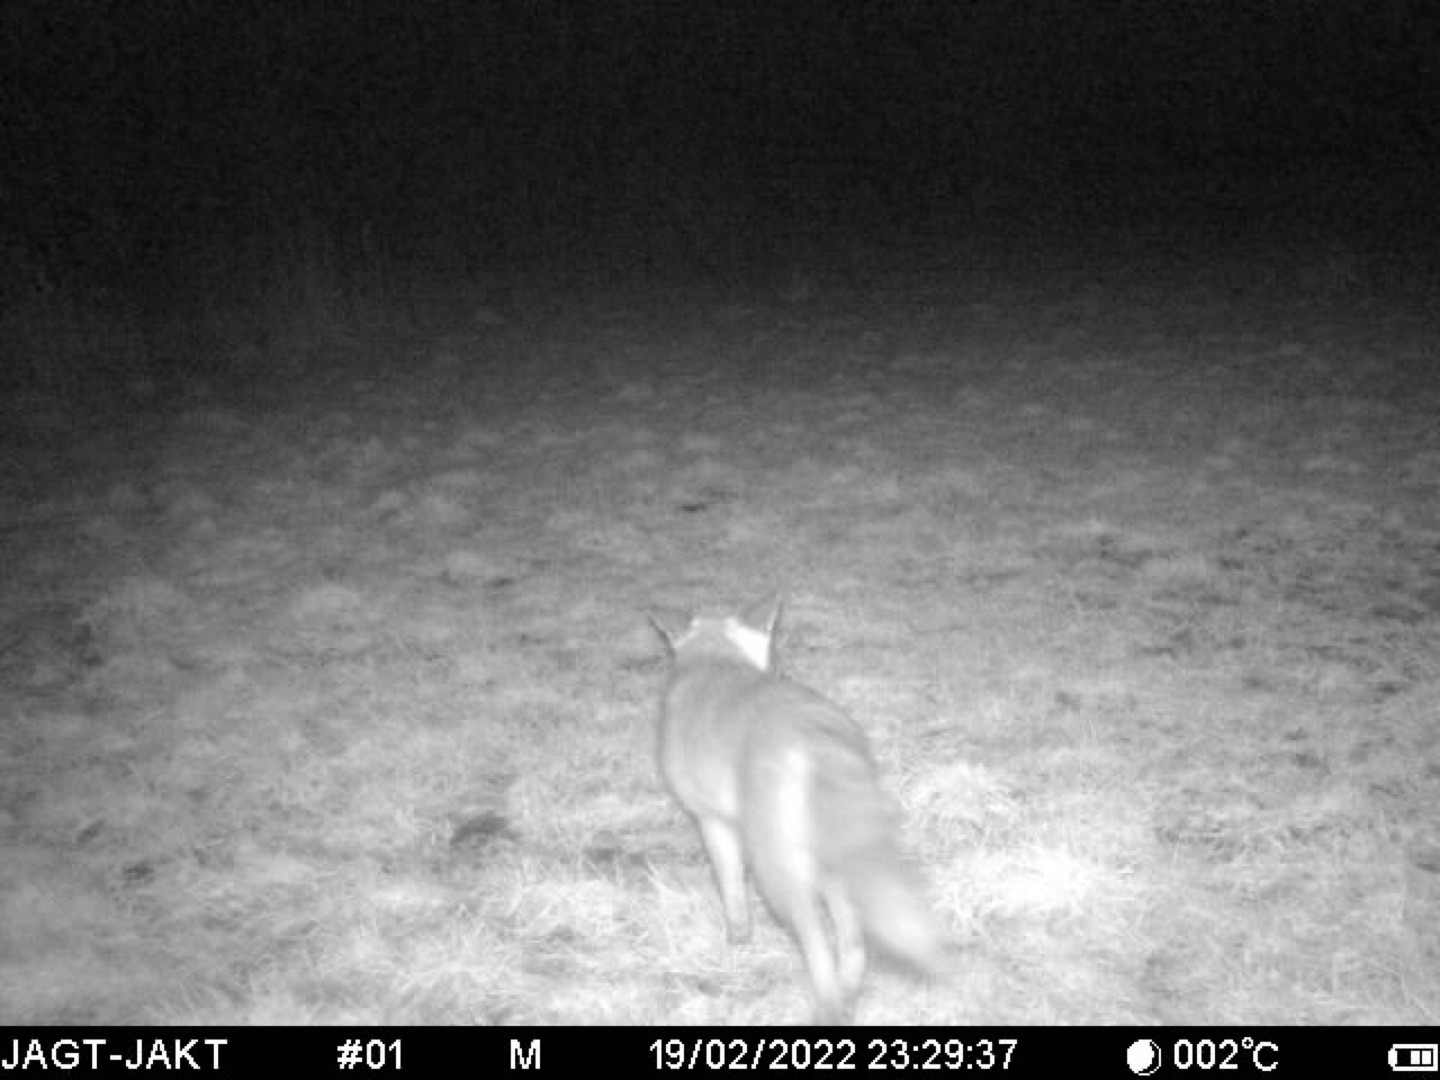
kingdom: Animalia
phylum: Chordata
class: Mammalia
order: Carnivora
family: Canidae
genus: Vulpes
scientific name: Vulpes vulpes
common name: Ræv
